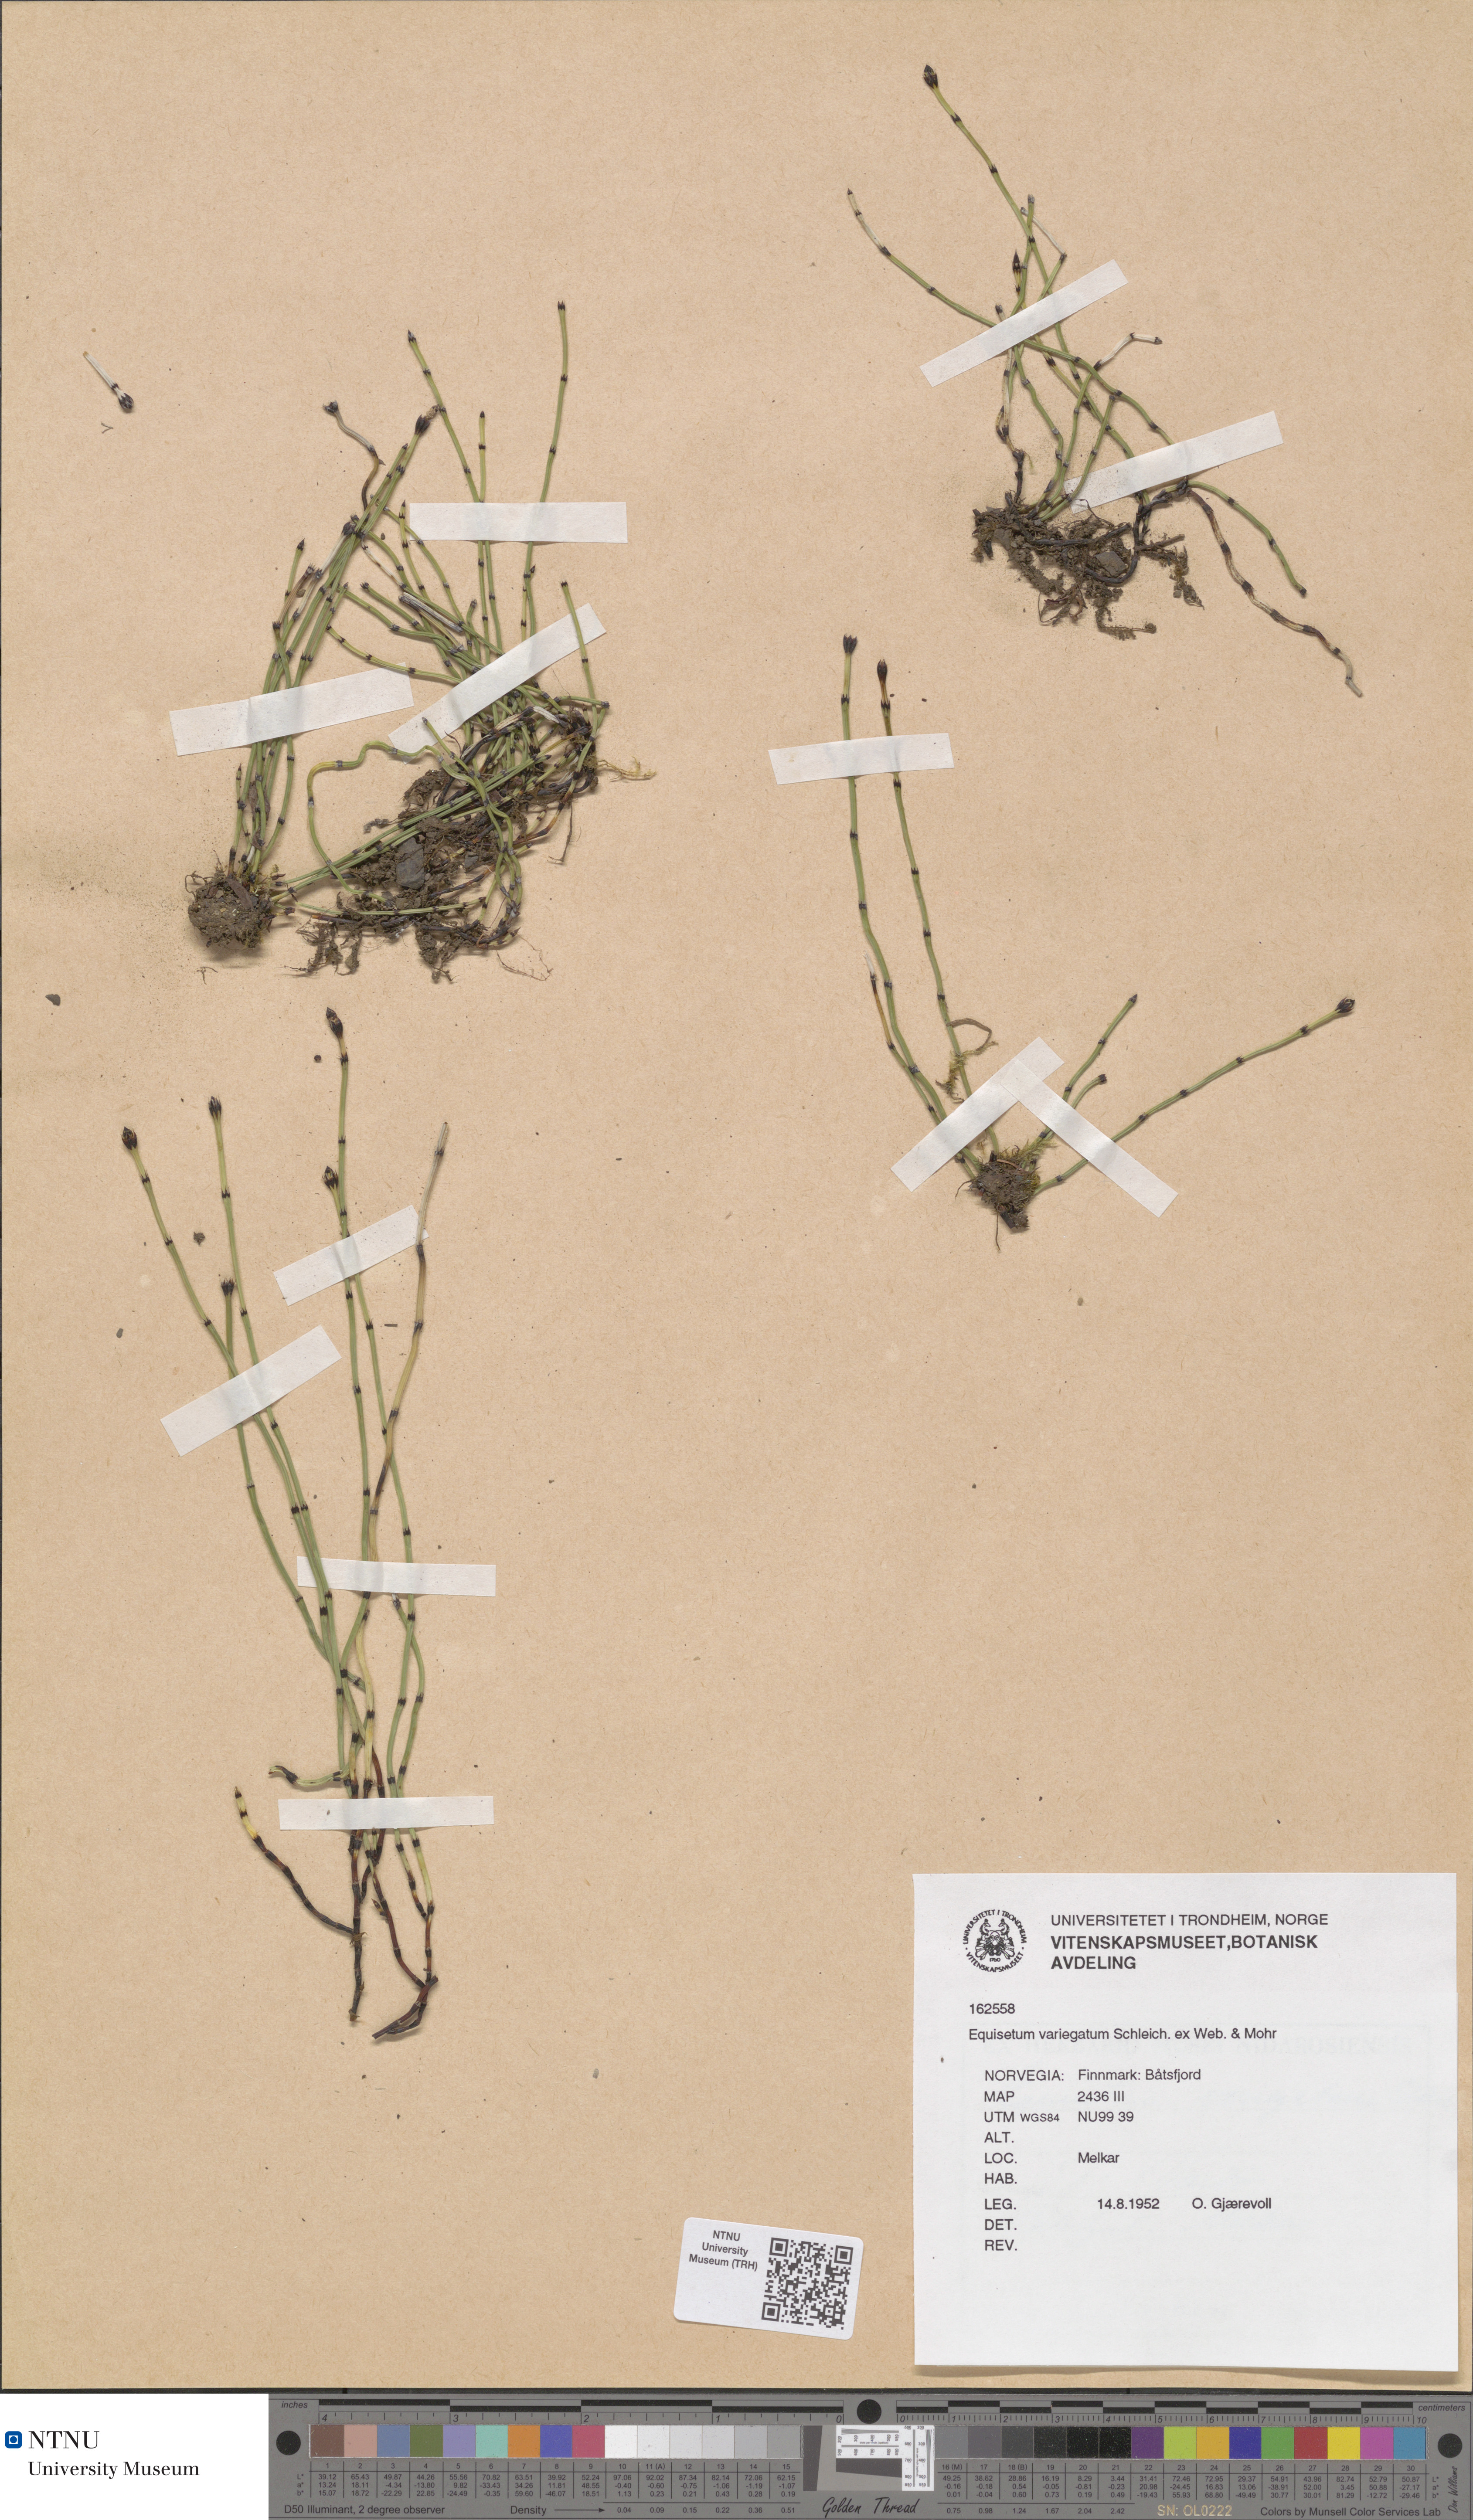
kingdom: Plantae
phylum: Tracheophyta
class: Polypodiopsida
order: Equisetales
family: Equisetaceae
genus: Equisetum
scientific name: Equisetum variegatum
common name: Variegated horsetail
